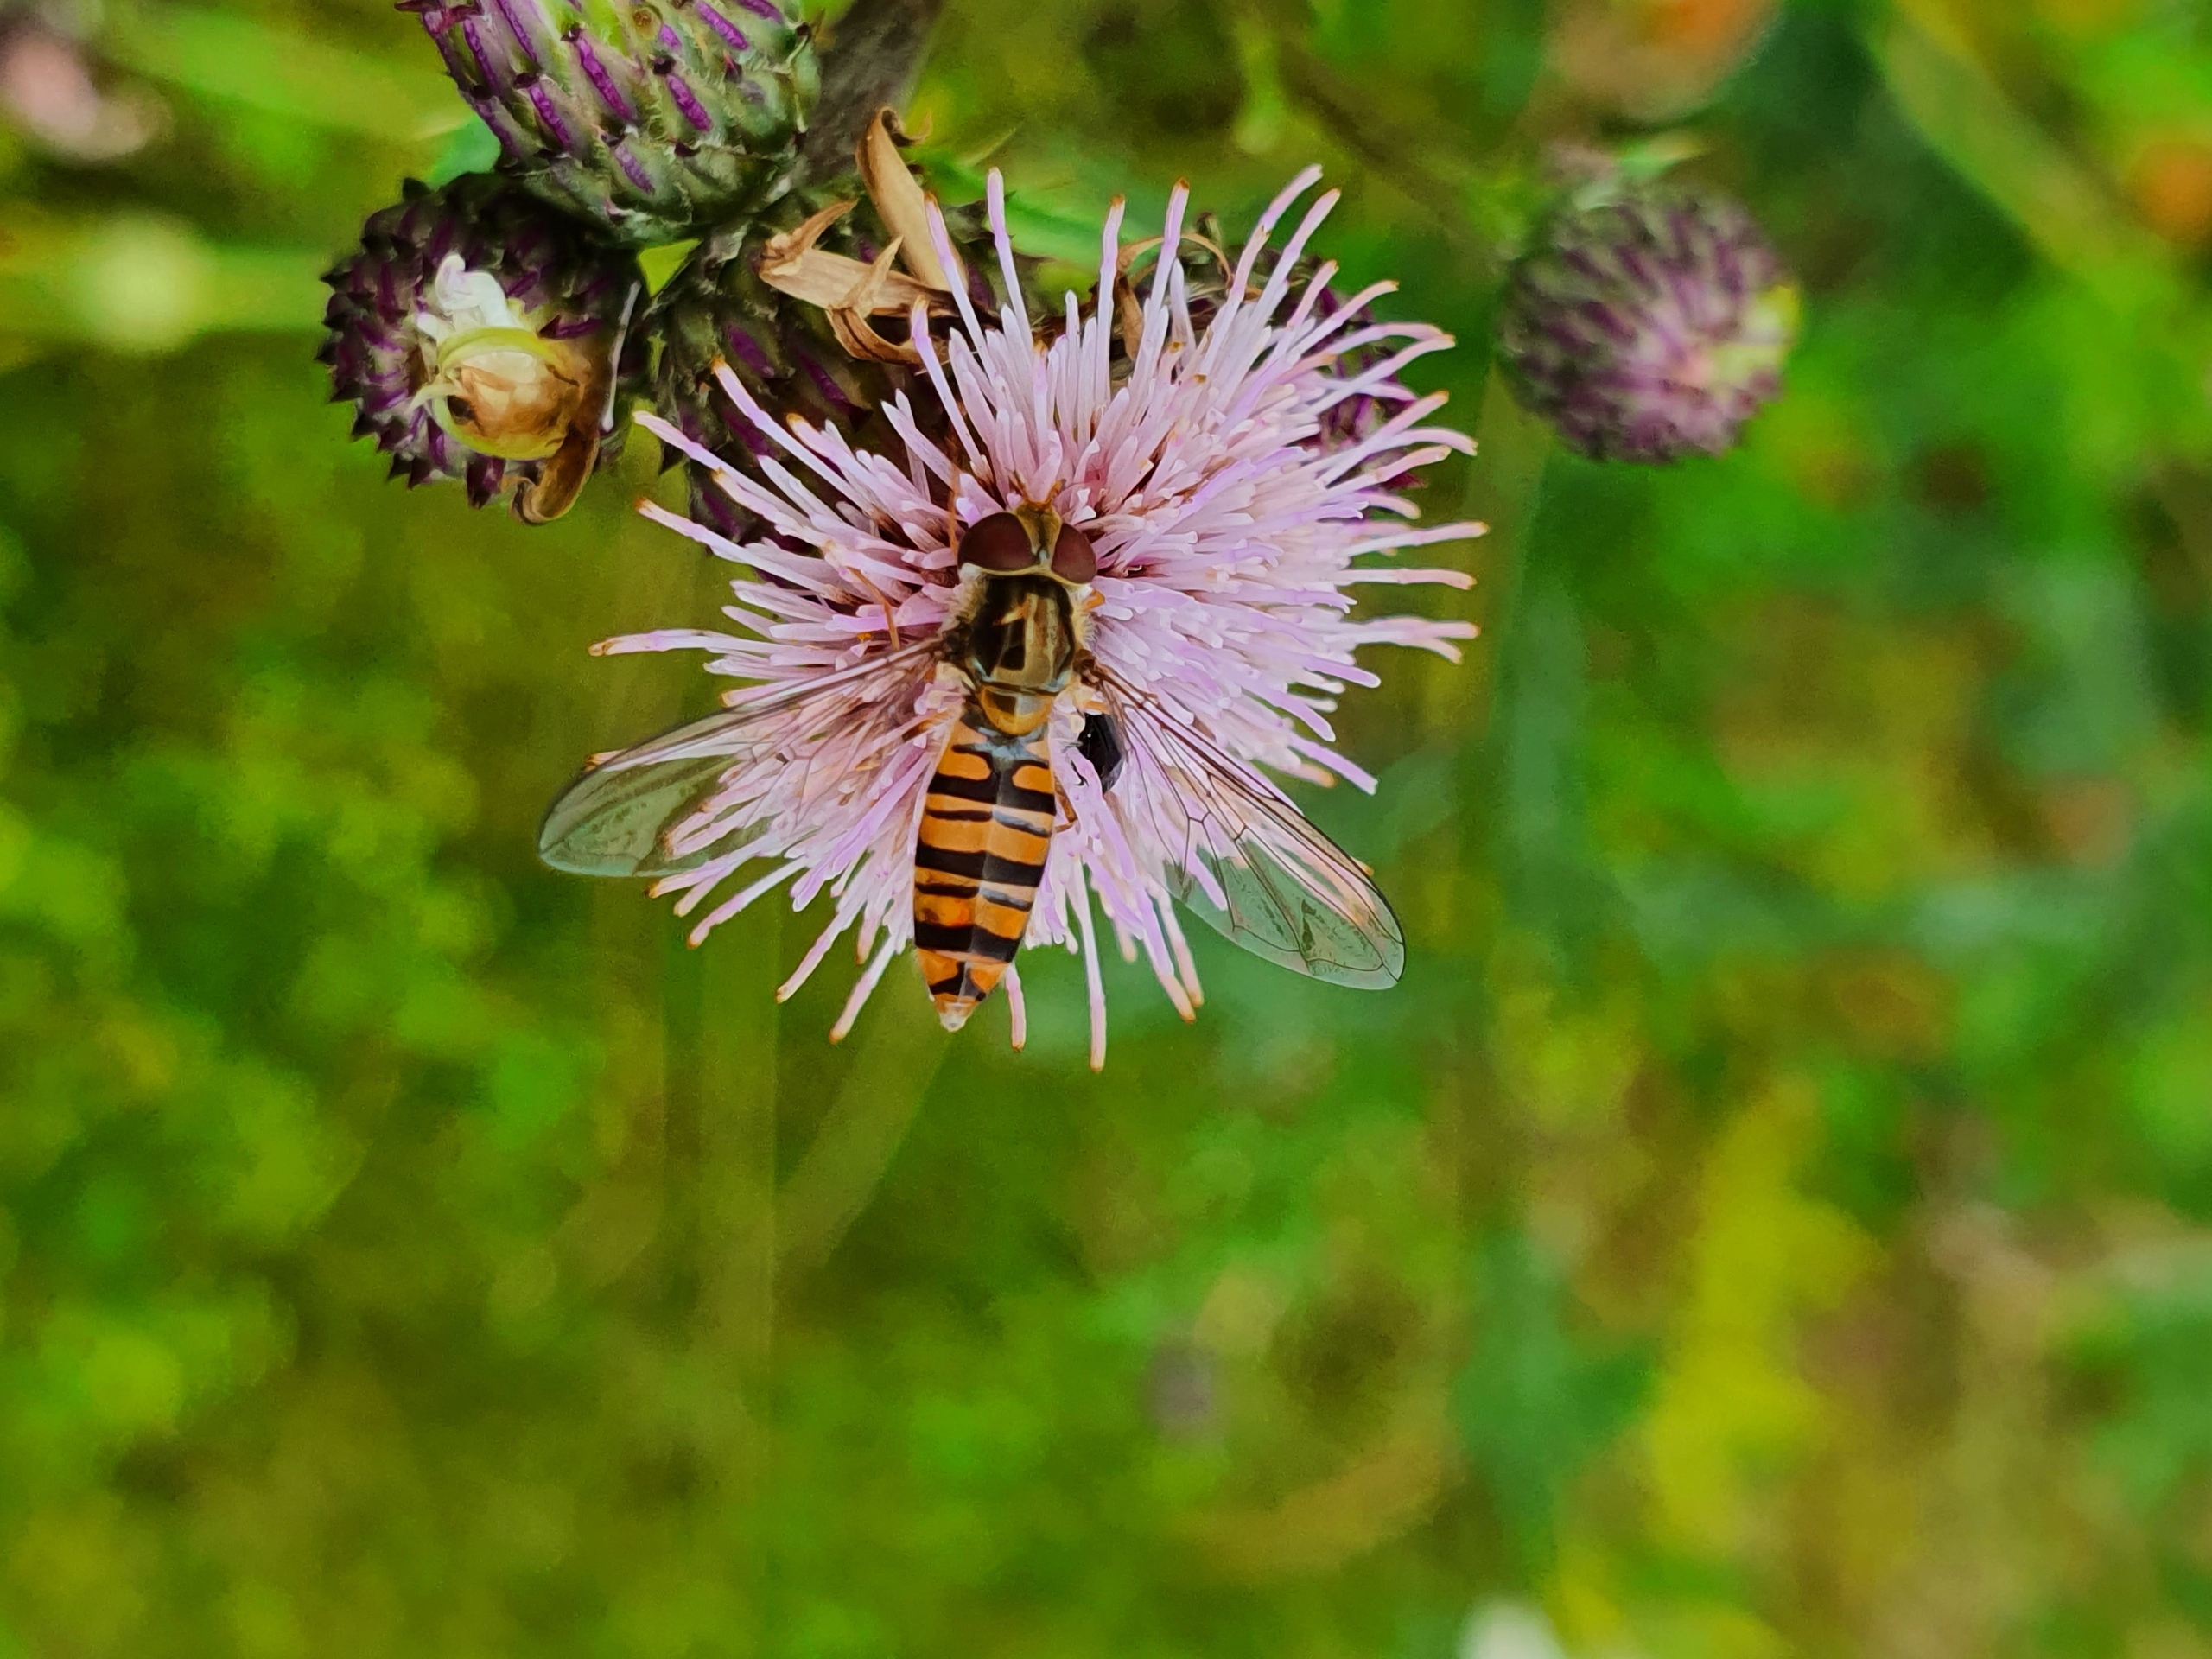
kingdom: Animalia
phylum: Arthropoda
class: Insecta
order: Diptera
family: Syrphidae
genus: Episyrphus
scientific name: Episyrphus balteatus
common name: Dobbeltbåndet svirreflue
